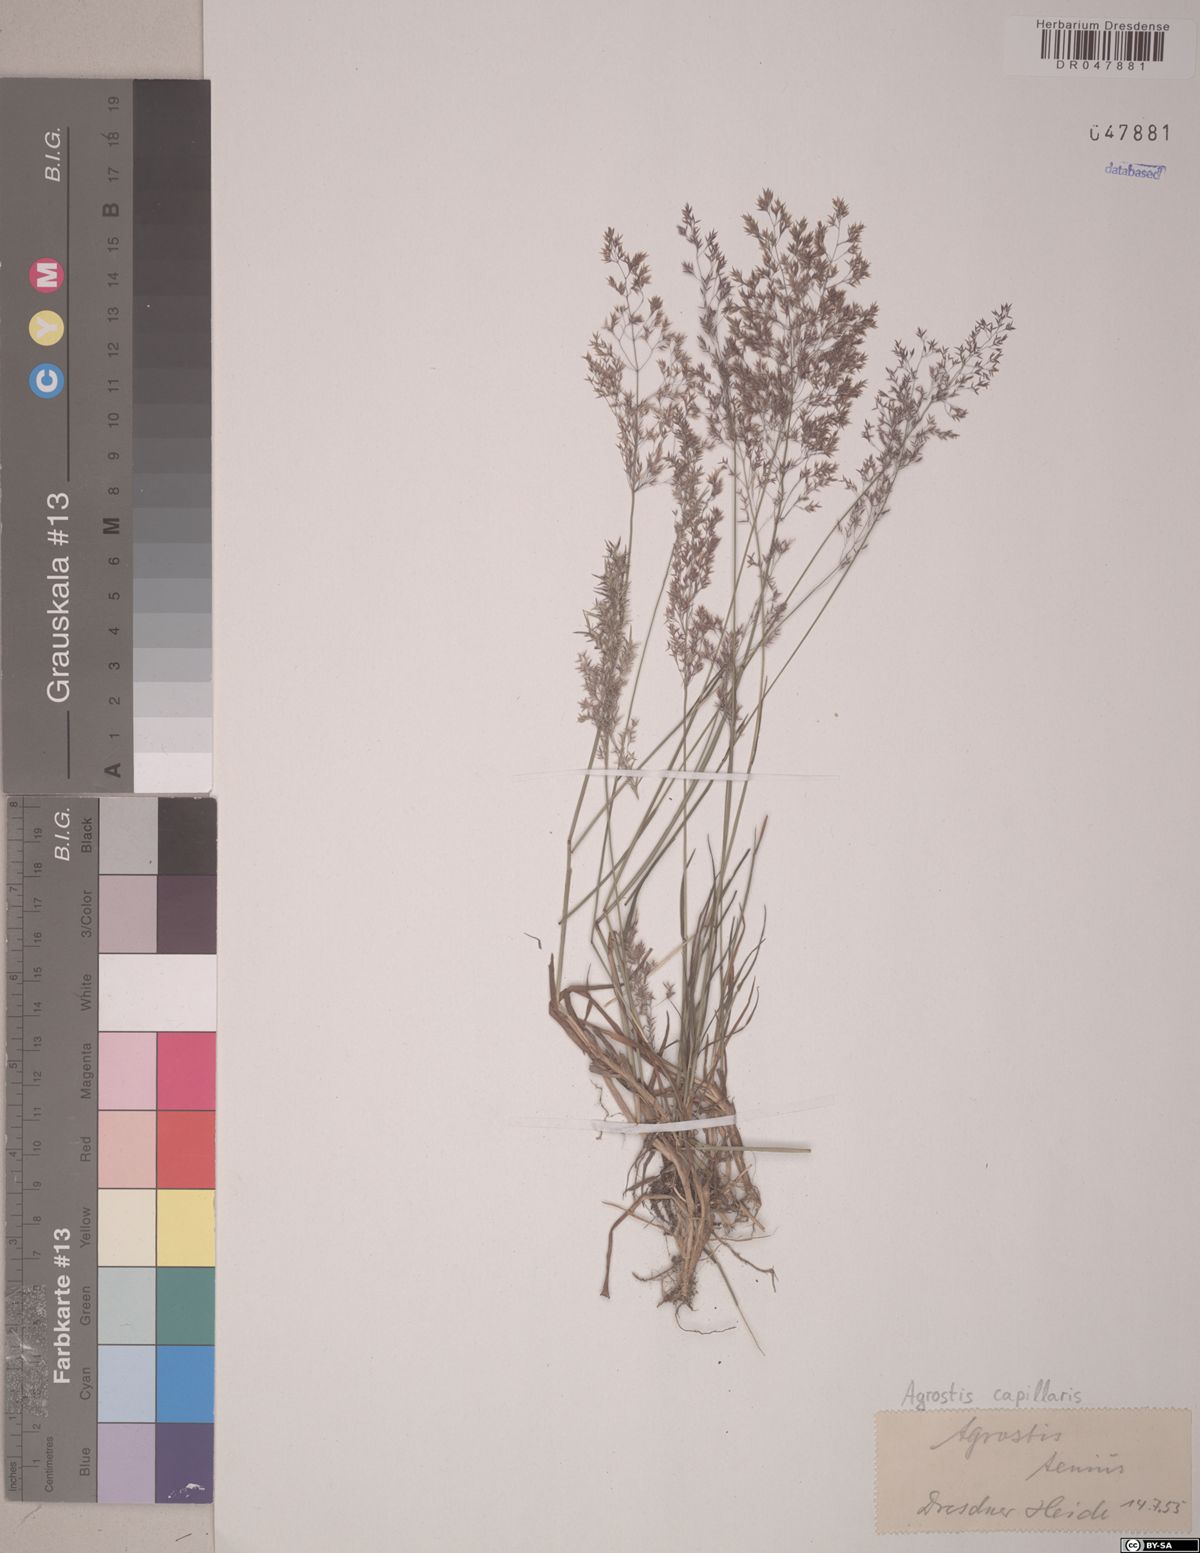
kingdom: Plantae
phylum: Tracheophyta
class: Liliopsida
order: Poales
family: Poaceae
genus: Agrostis
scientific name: Agrostis capillaris
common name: Colonial bentgrass
